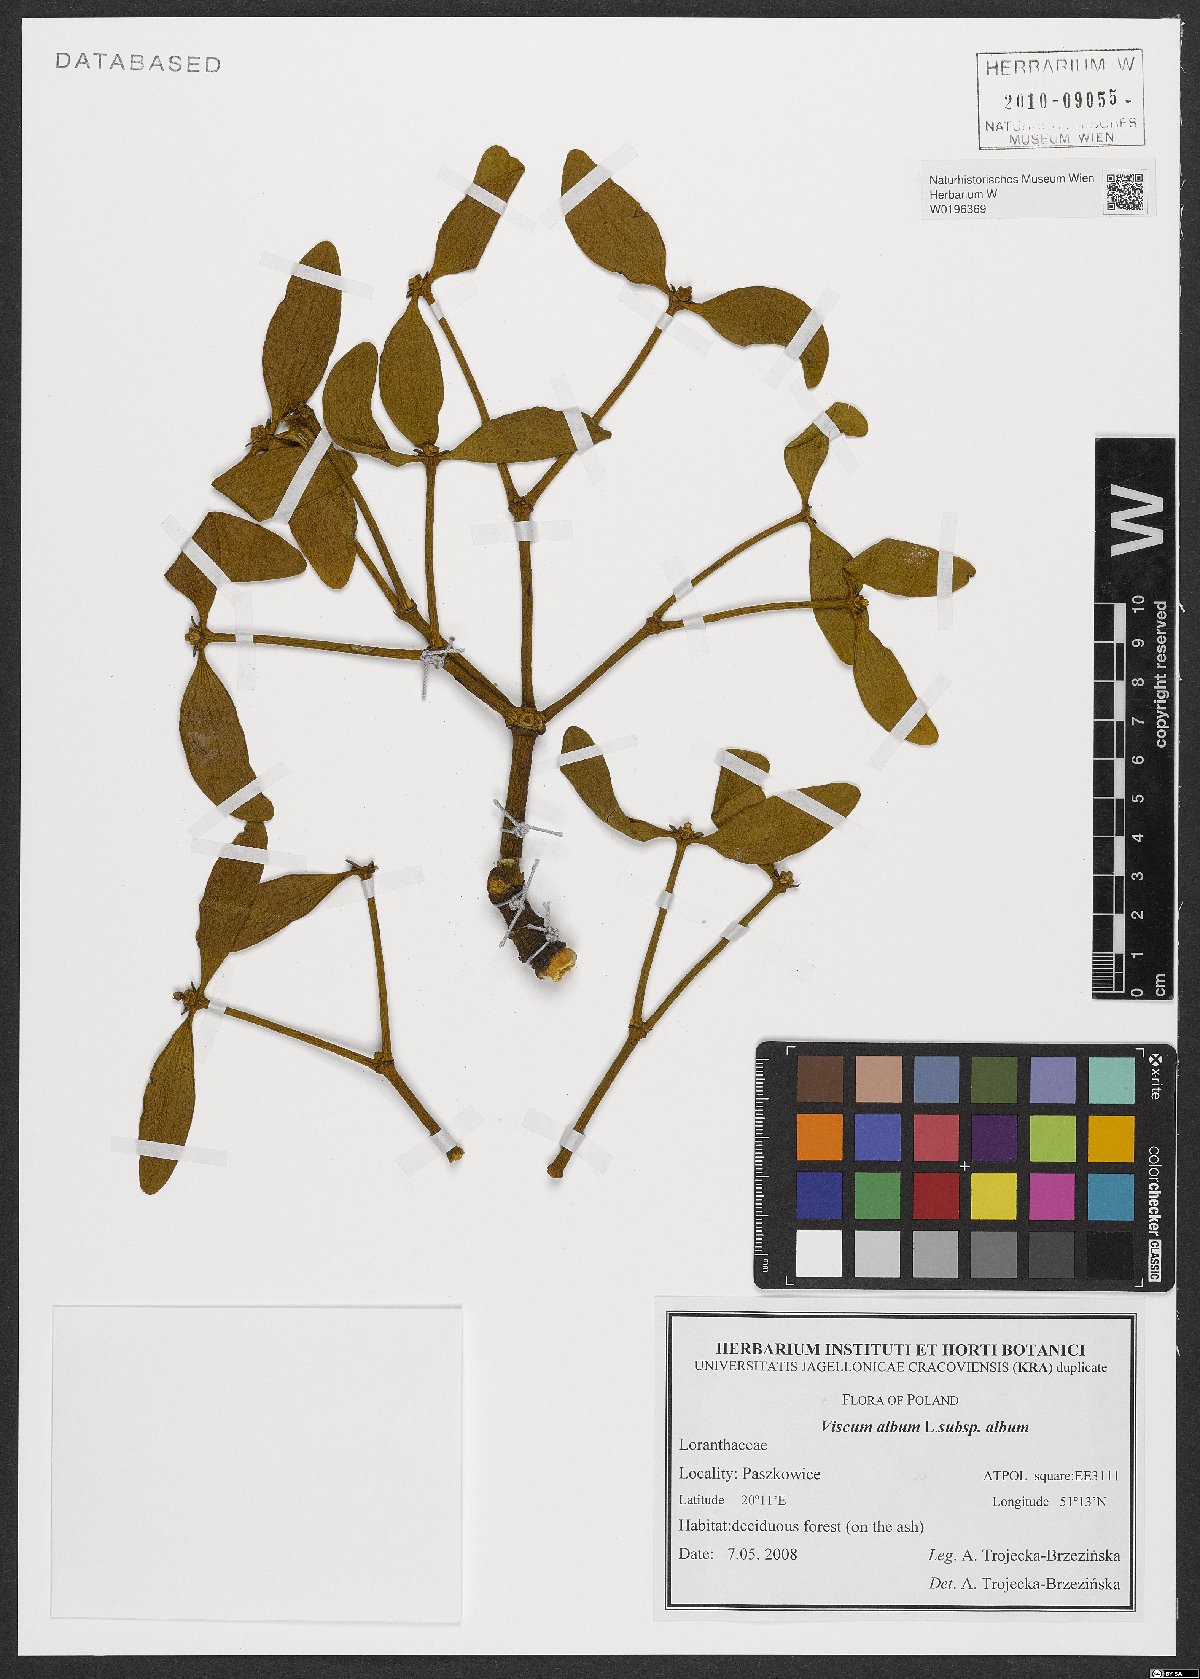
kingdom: Plantae
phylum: Tracheophyta
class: Magnoliopsida
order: Santalales
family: Viscaceae
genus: Viscum
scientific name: Viscum album
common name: Mistletoe
